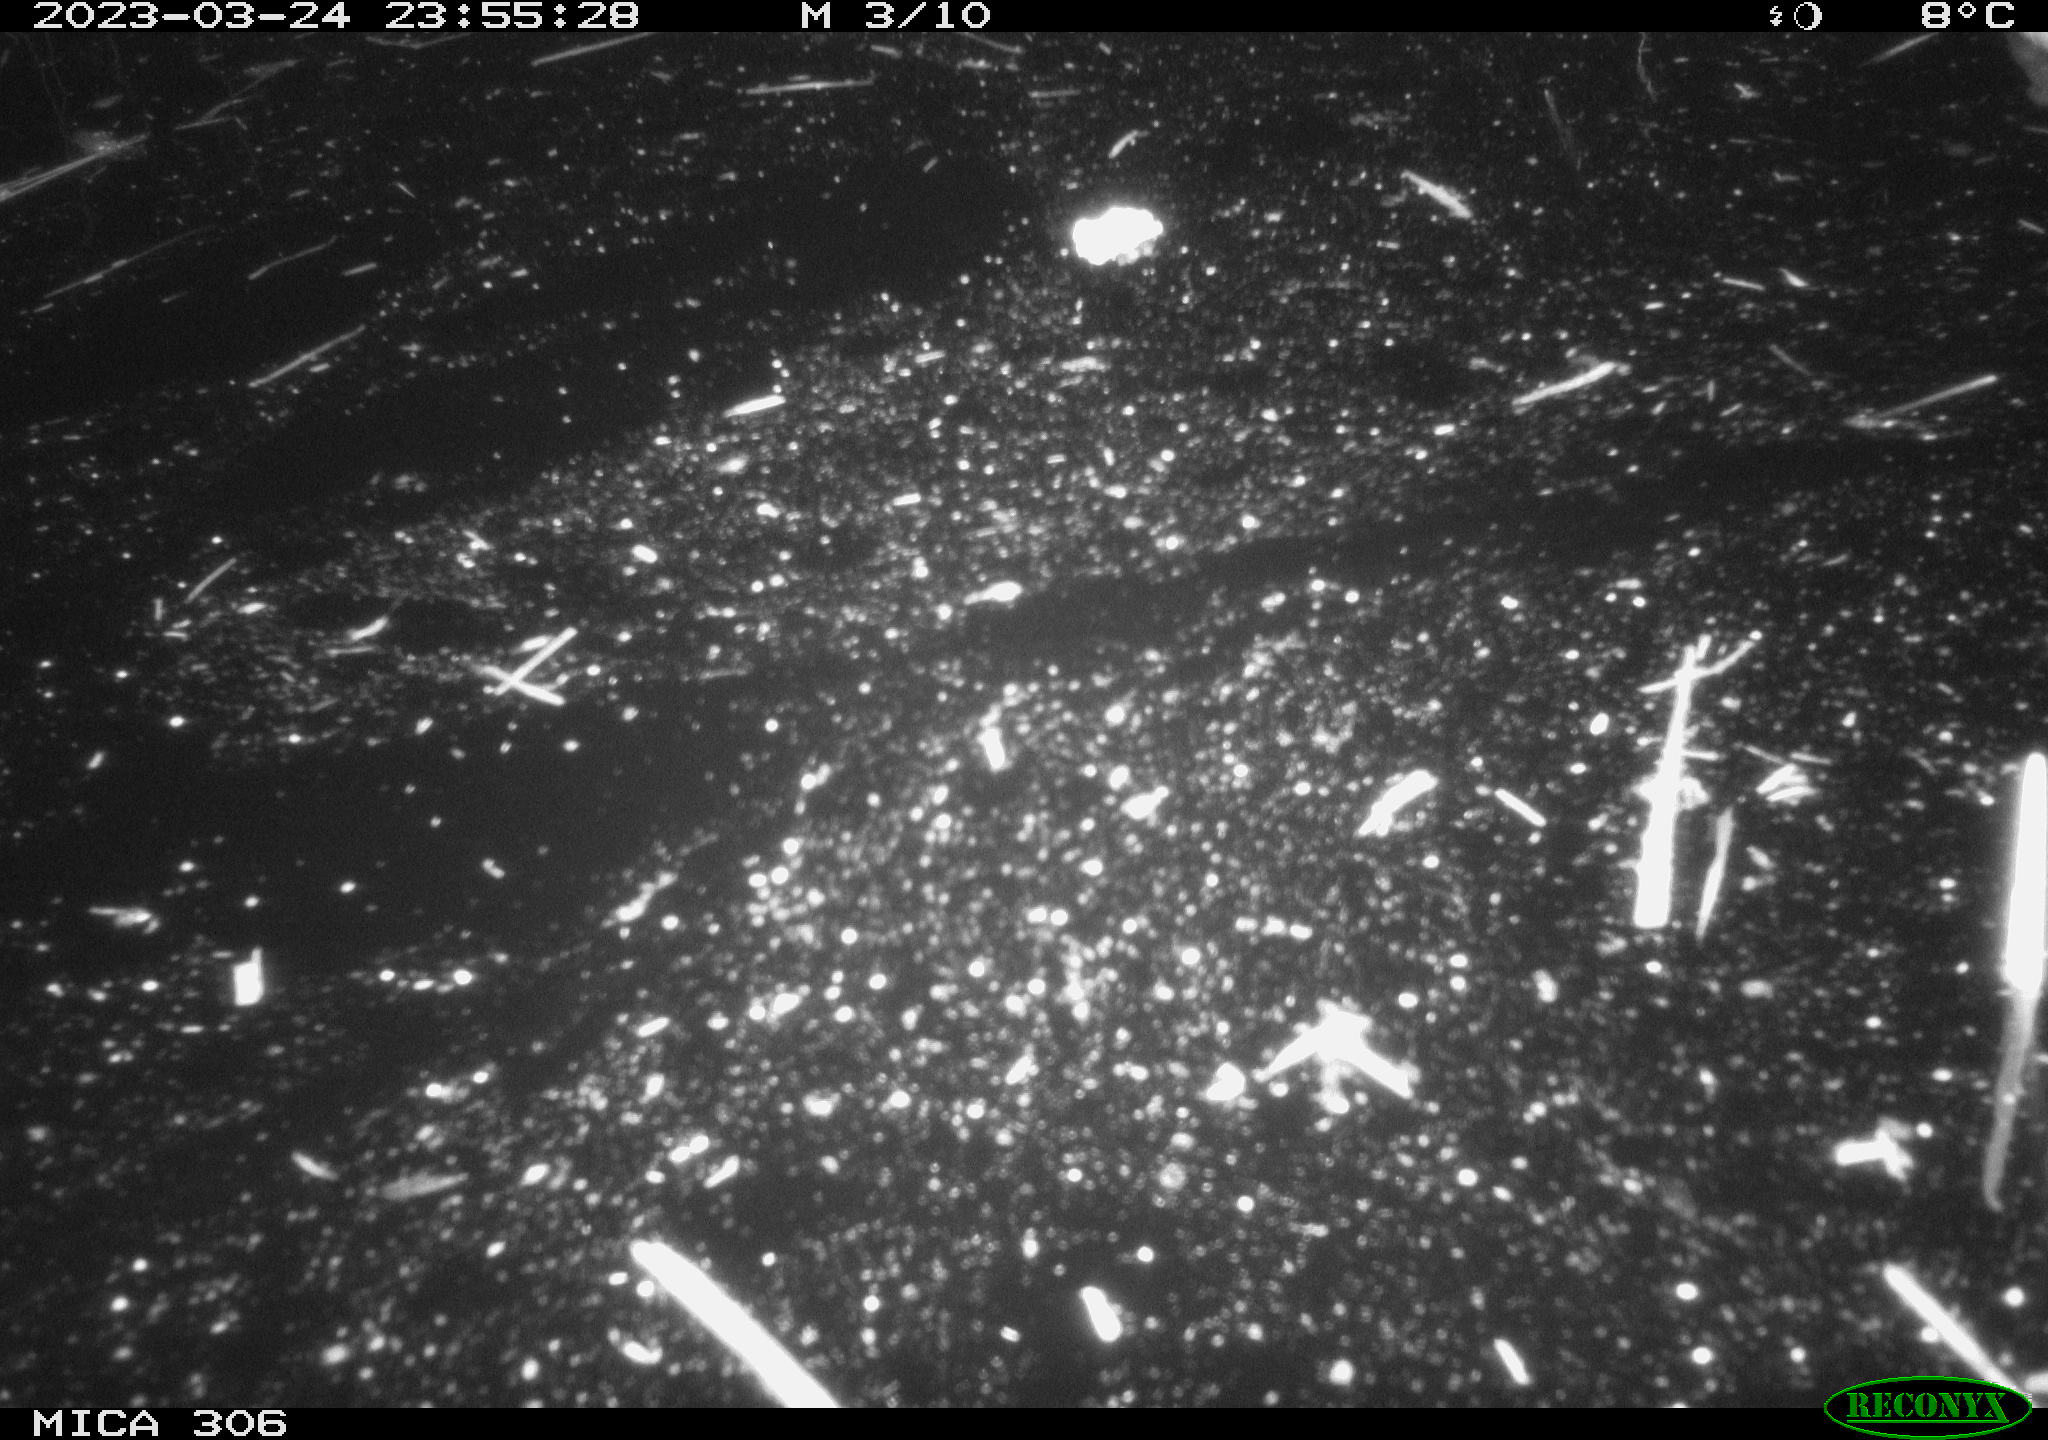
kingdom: Animalia
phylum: Chordata
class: Aves
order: Anseriformes
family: Anatidae
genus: Anas
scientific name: Anas
